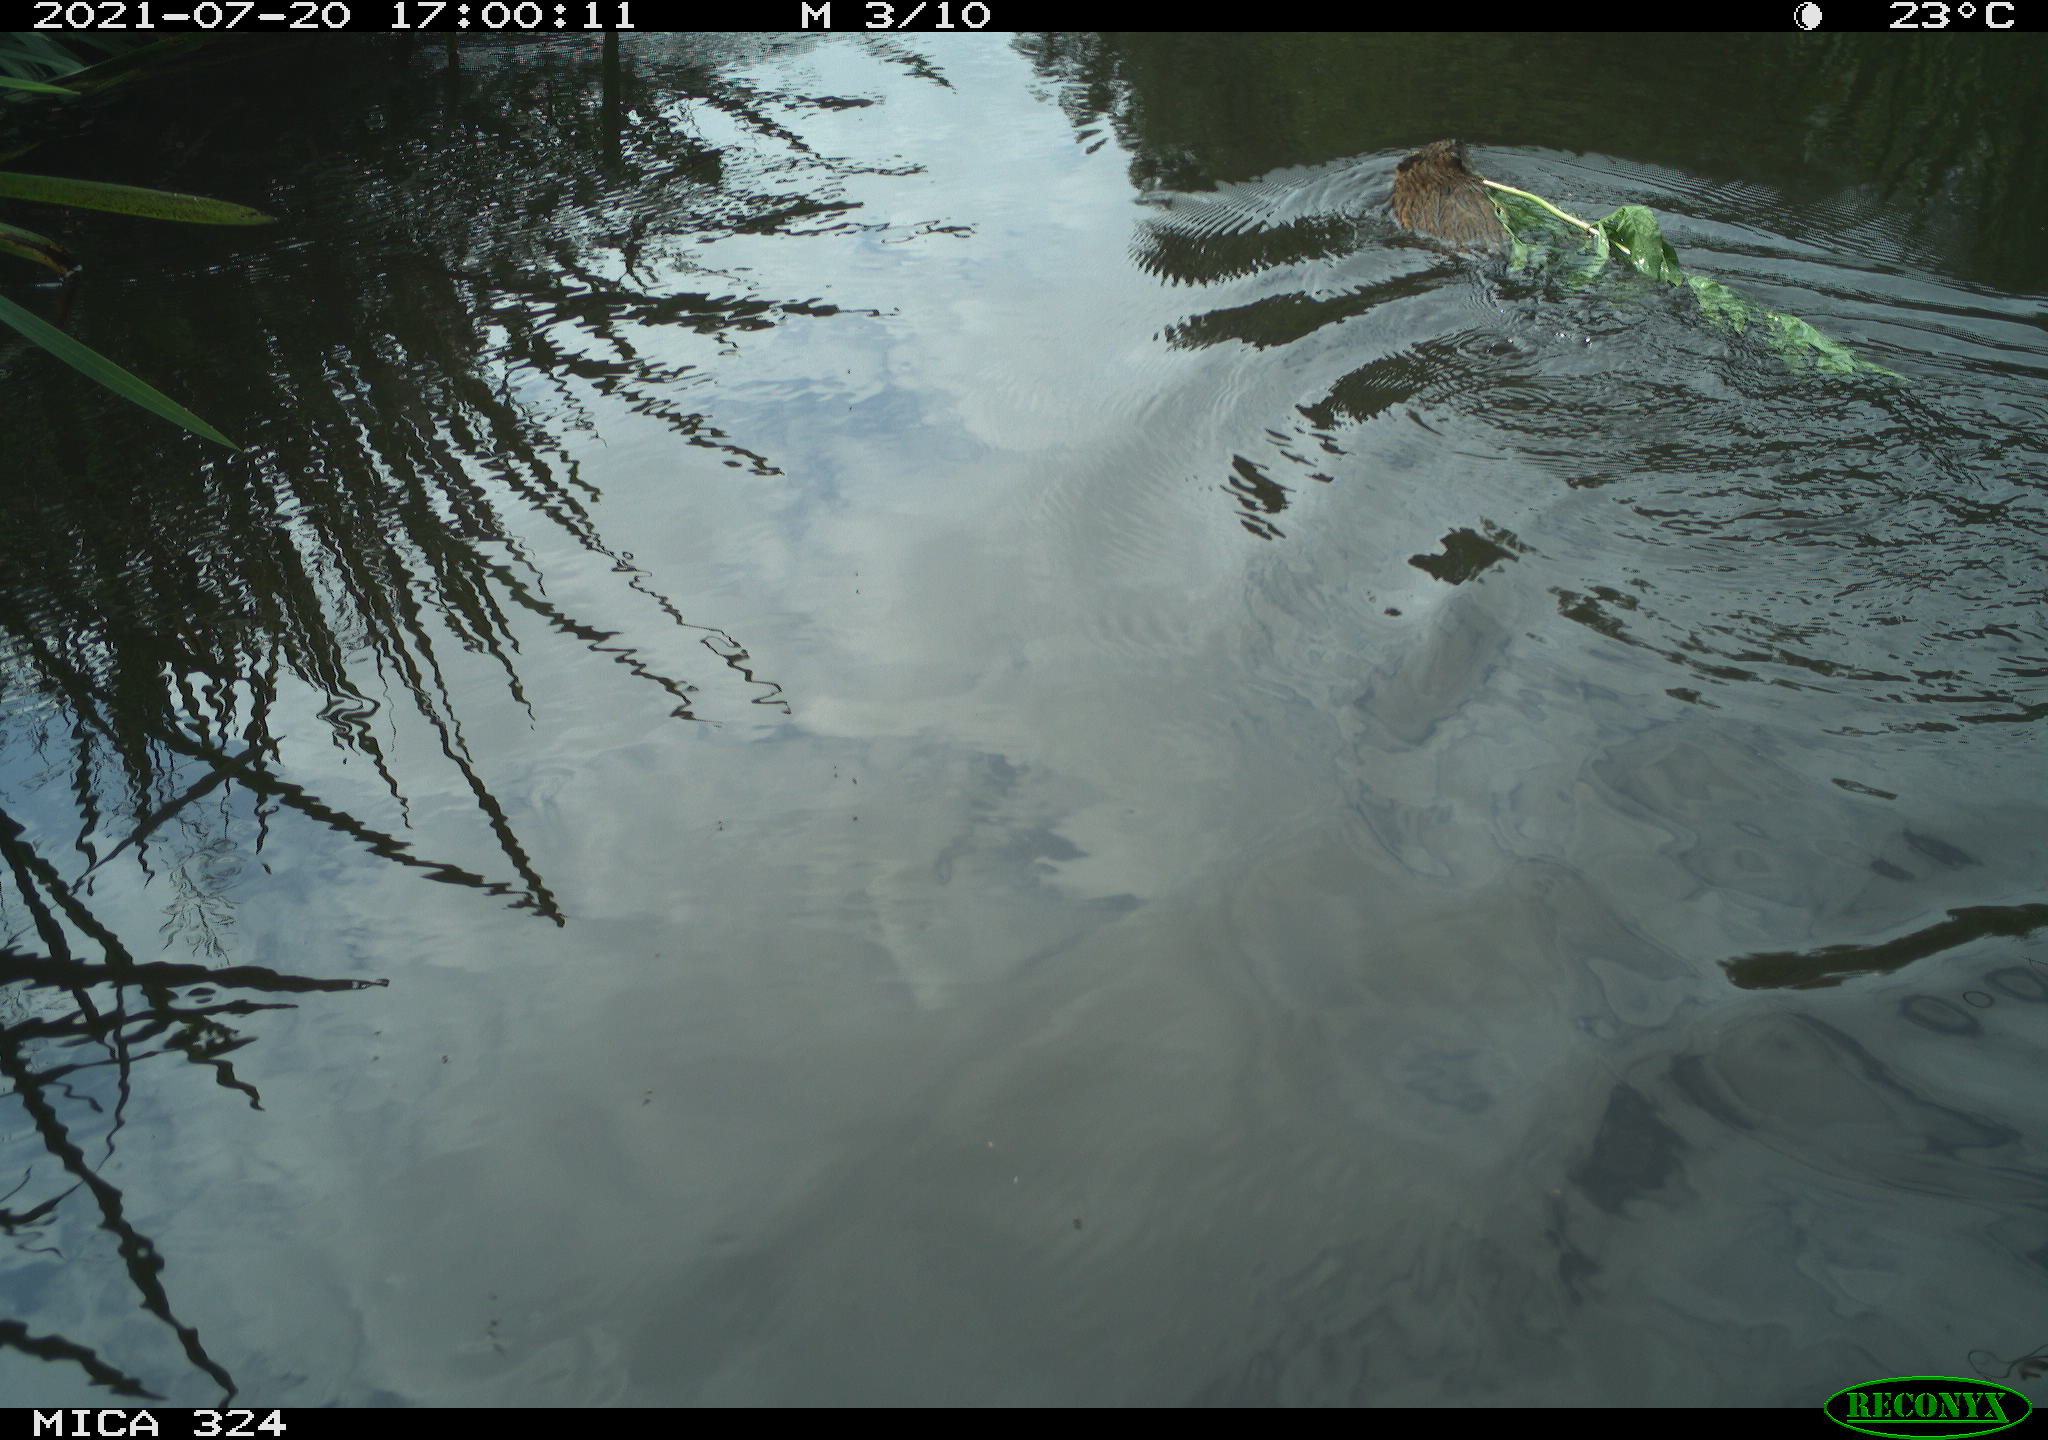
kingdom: Animalia
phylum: Chordata
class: Mammalia
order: Rodentia
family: Cricetidae
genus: Ondatra
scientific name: Ondatra zibethicus
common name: Muskrat
